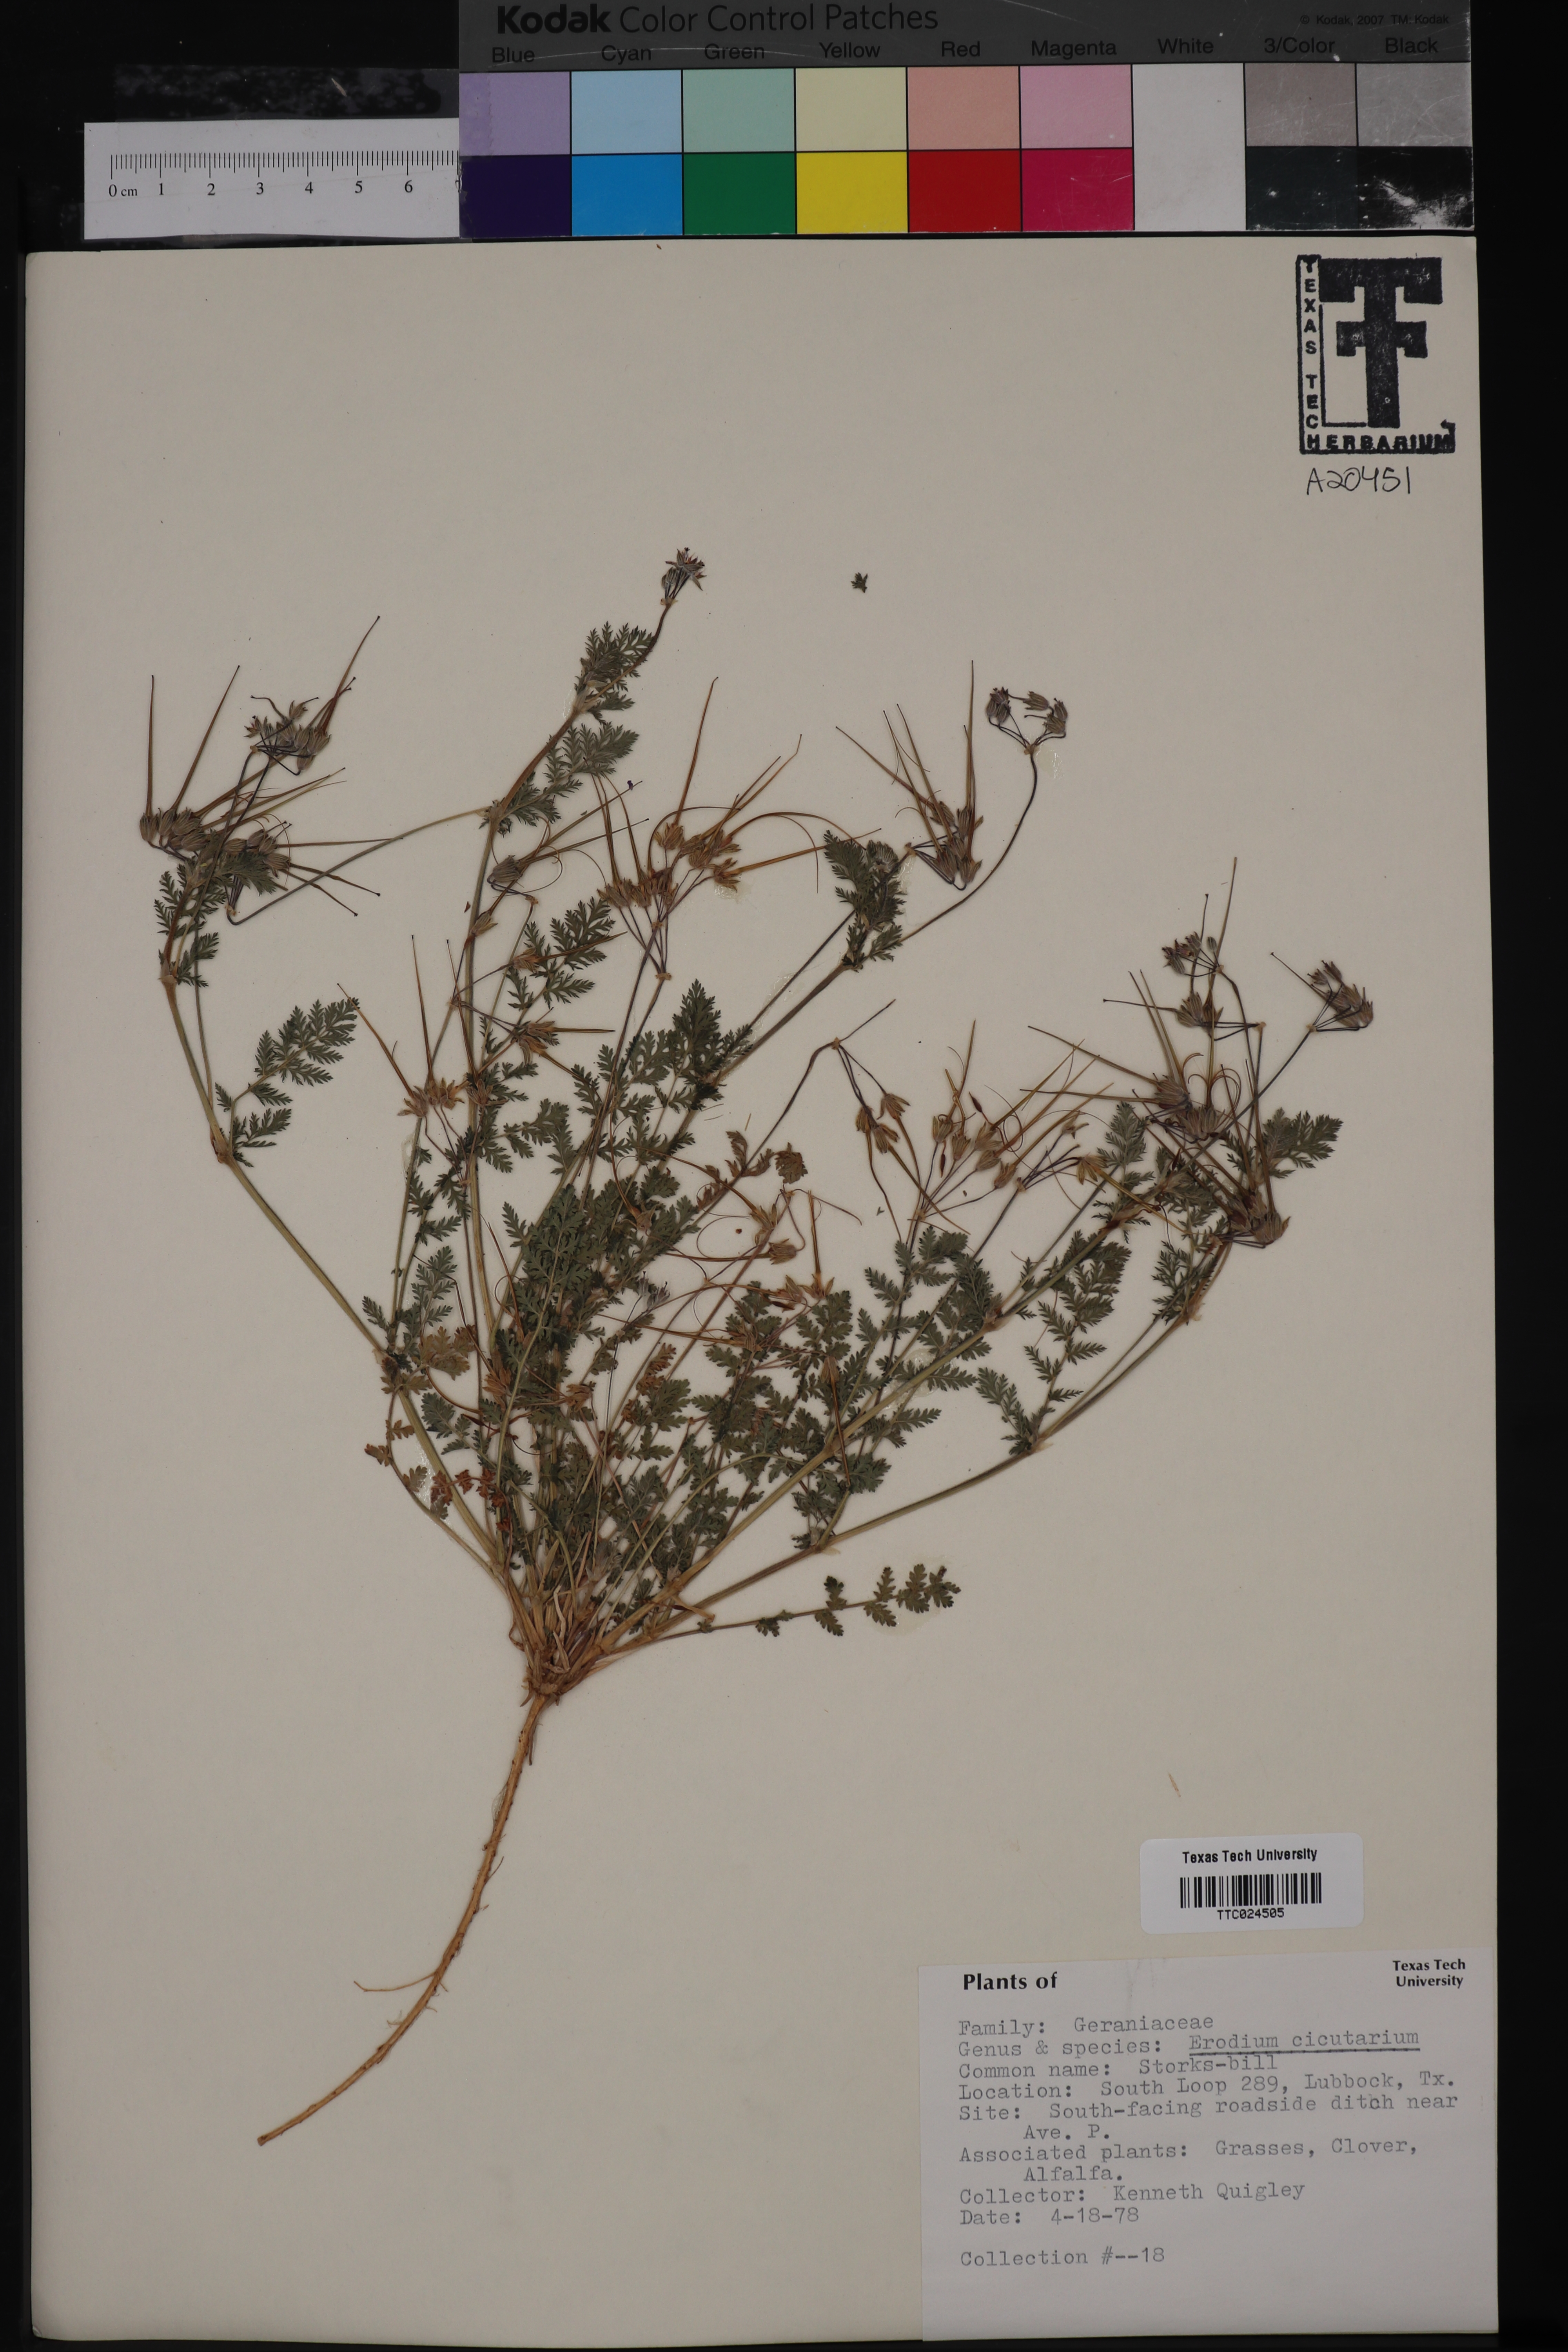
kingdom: Plantae
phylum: Tracheophyta
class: Magnoliopsida
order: Geraniales
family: Geraniaceae
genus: Erodium
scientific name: Erodium cicutarium
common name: Common stork's-bill
